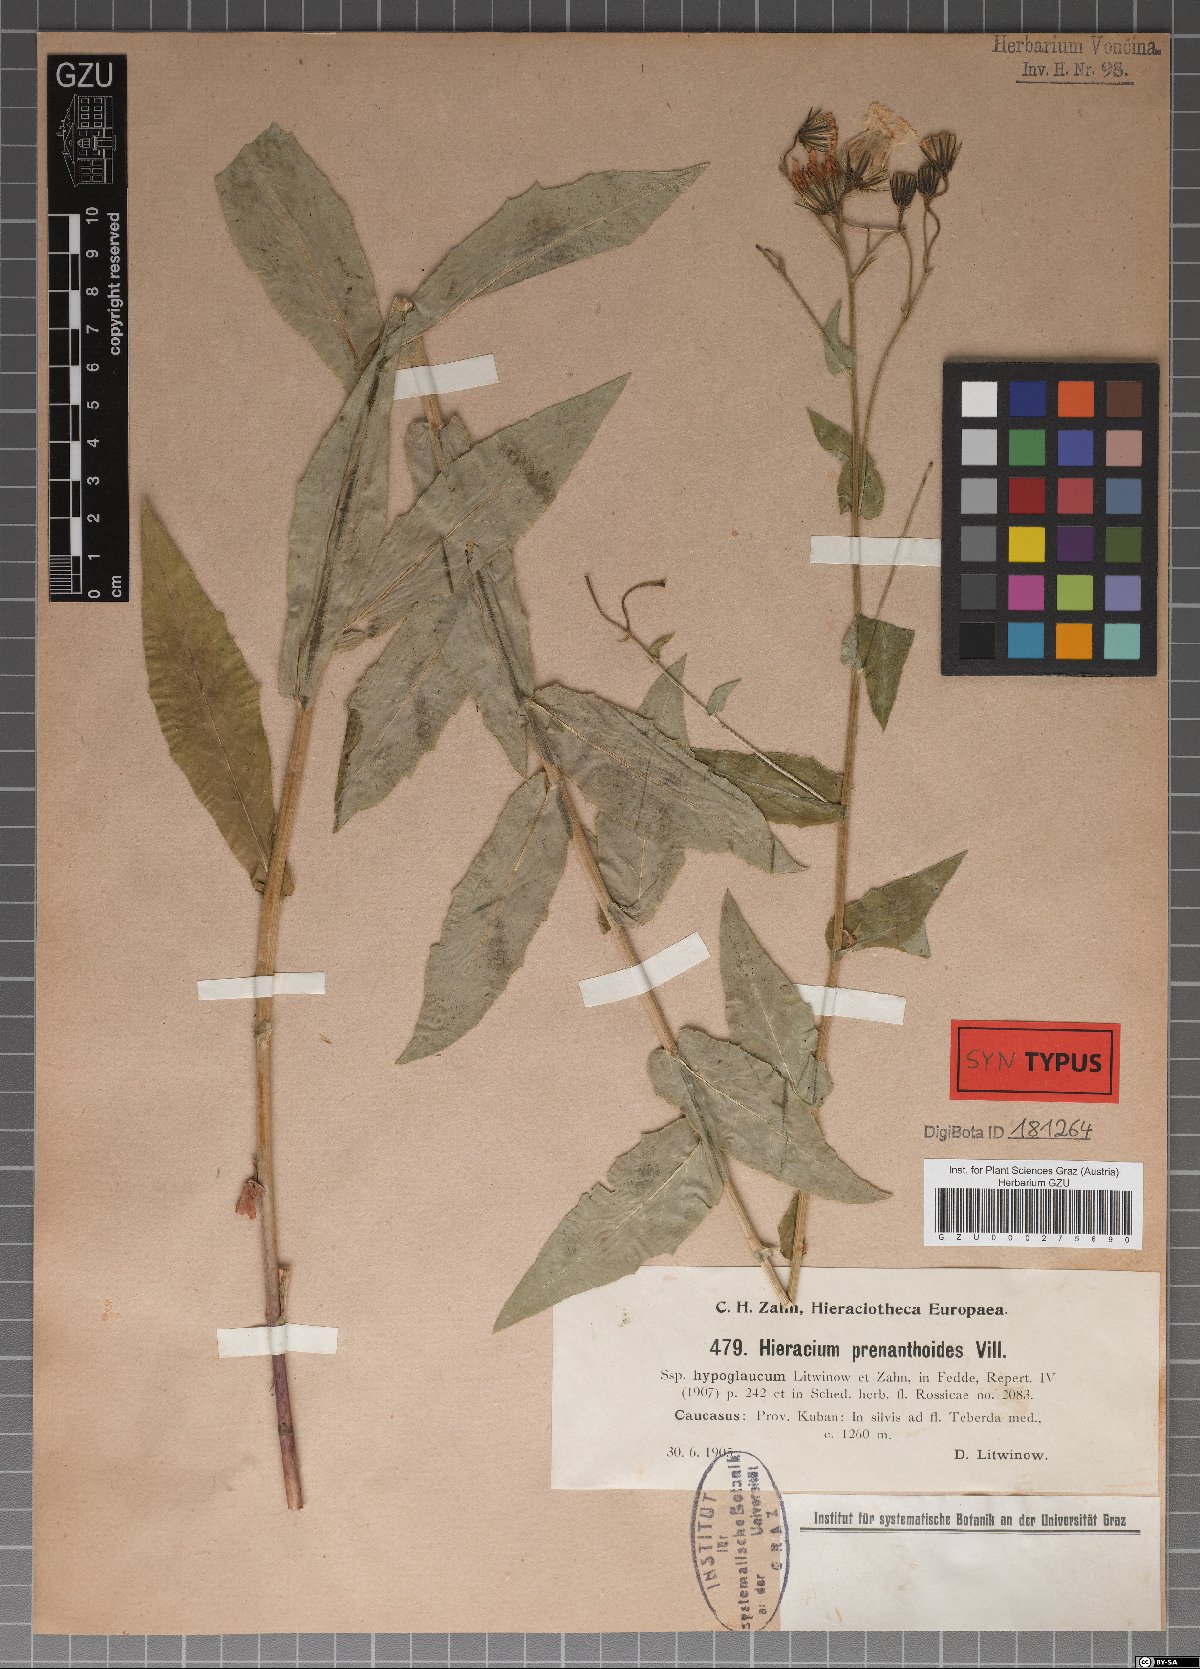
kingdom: Plantae
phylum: Tracheophyta
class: Magnoliopsida
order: Asterales
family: Asteraceae
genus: Hieracium
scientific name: Hieracium prenanthoides
